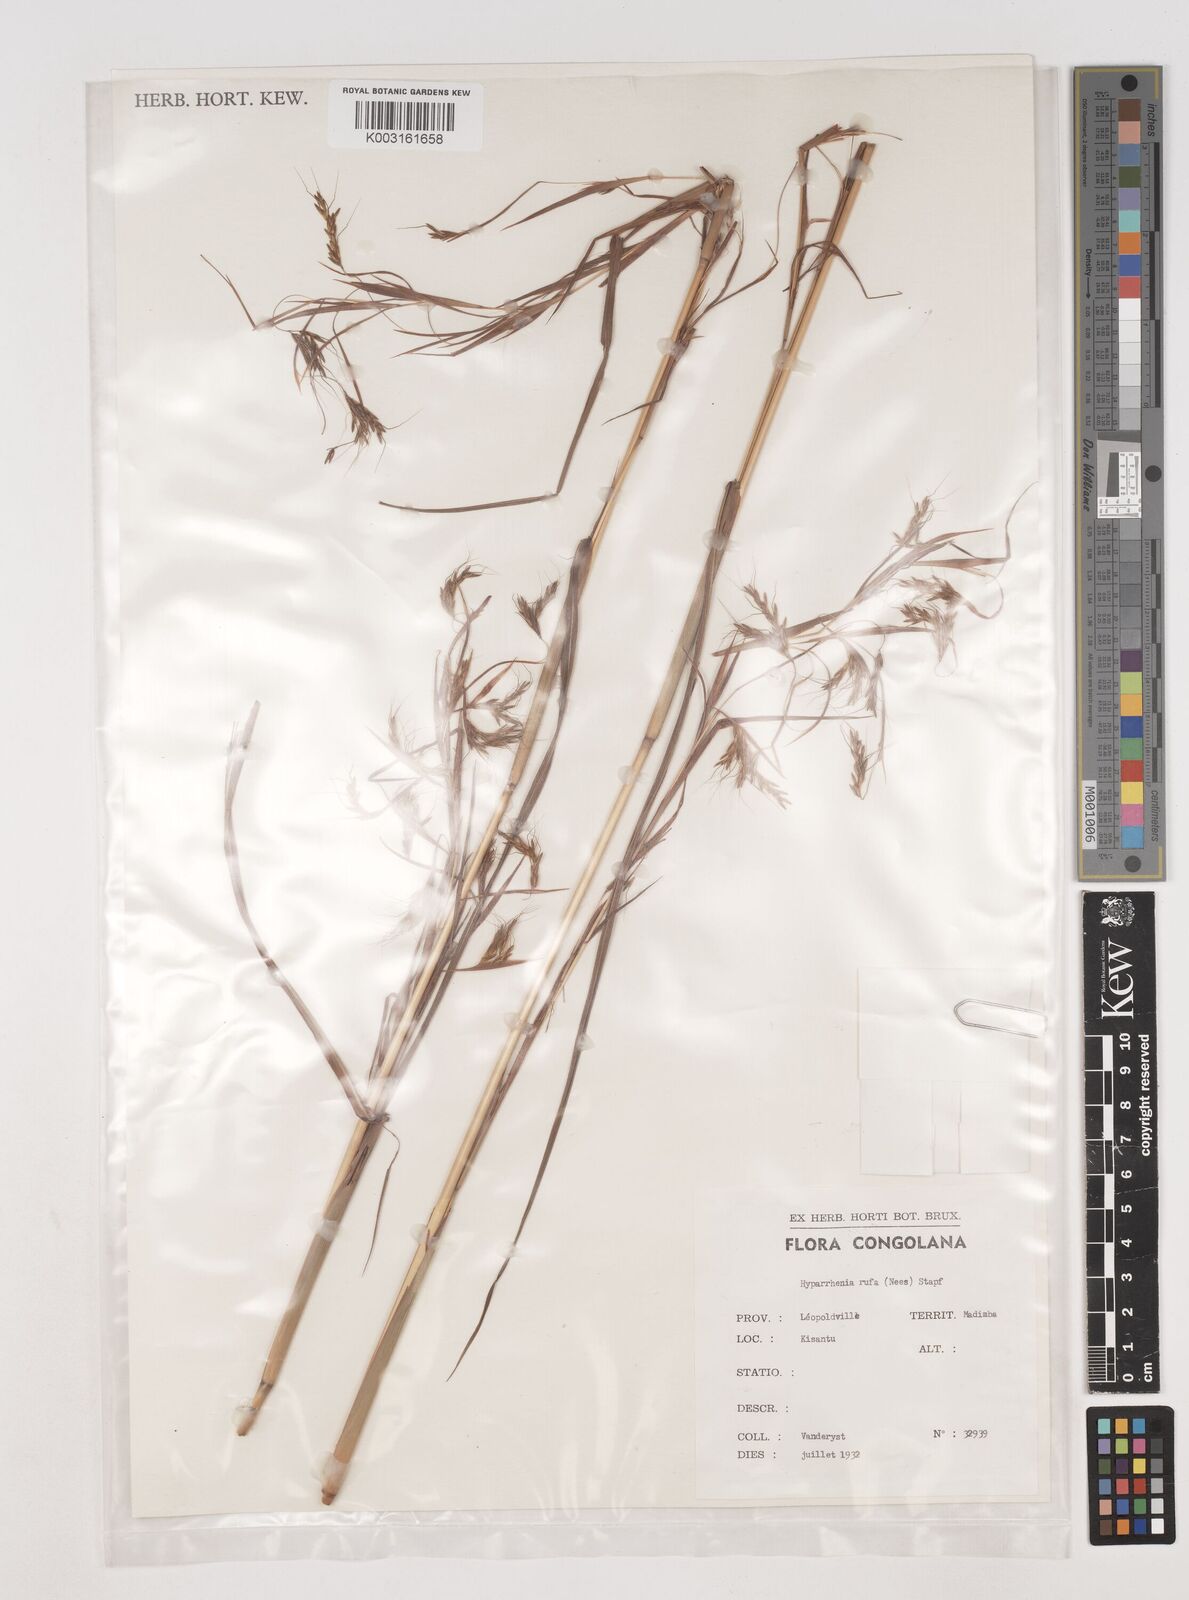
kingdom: Plantae
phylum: Tracheophyta
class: Liliopsida
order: Poales
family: Poaceae
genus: Hyparrhenia
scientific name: Hyparrhenia rufa
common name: Jaraguagrass
